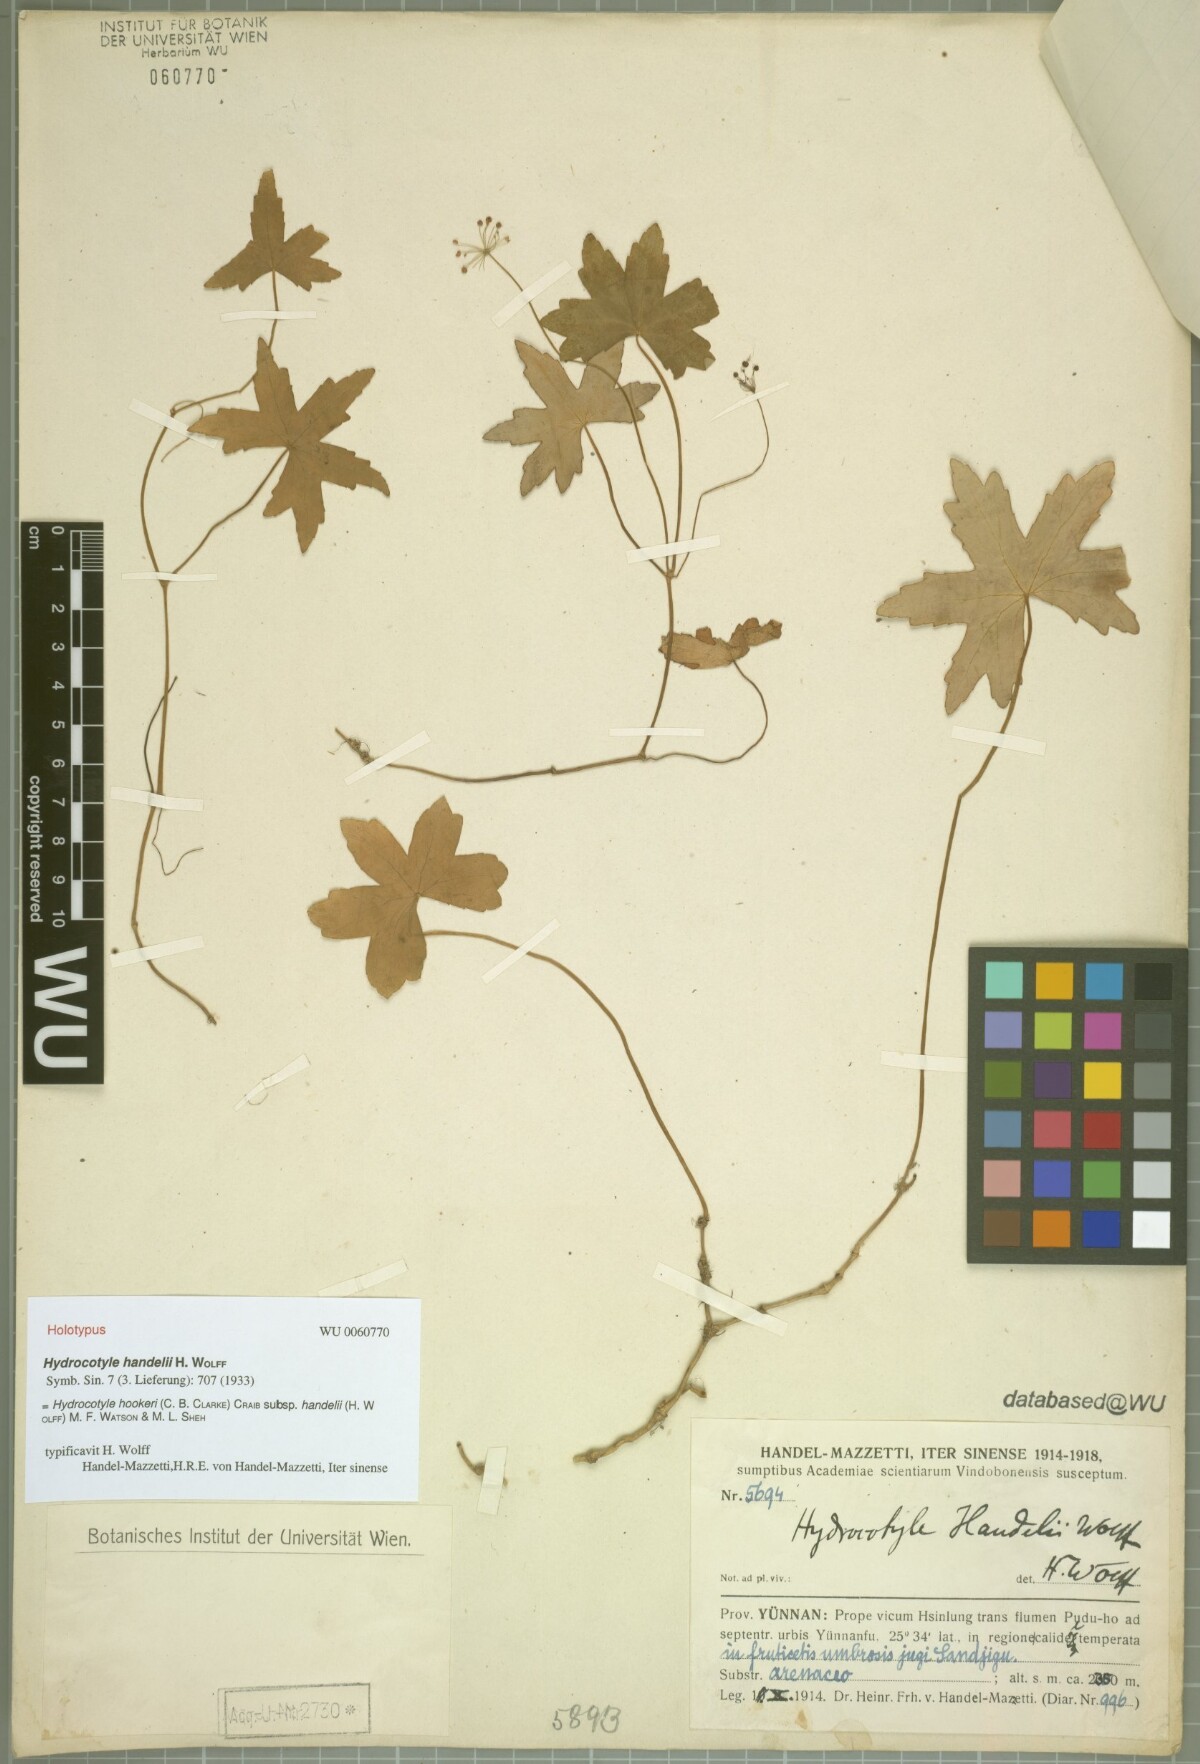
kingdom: Plantae
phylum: Tracheophyta
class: Magnoliopsida
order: Apiales
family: Araliaceae
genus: Hydrocotyle
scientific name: Hydrocotyle hookeri
